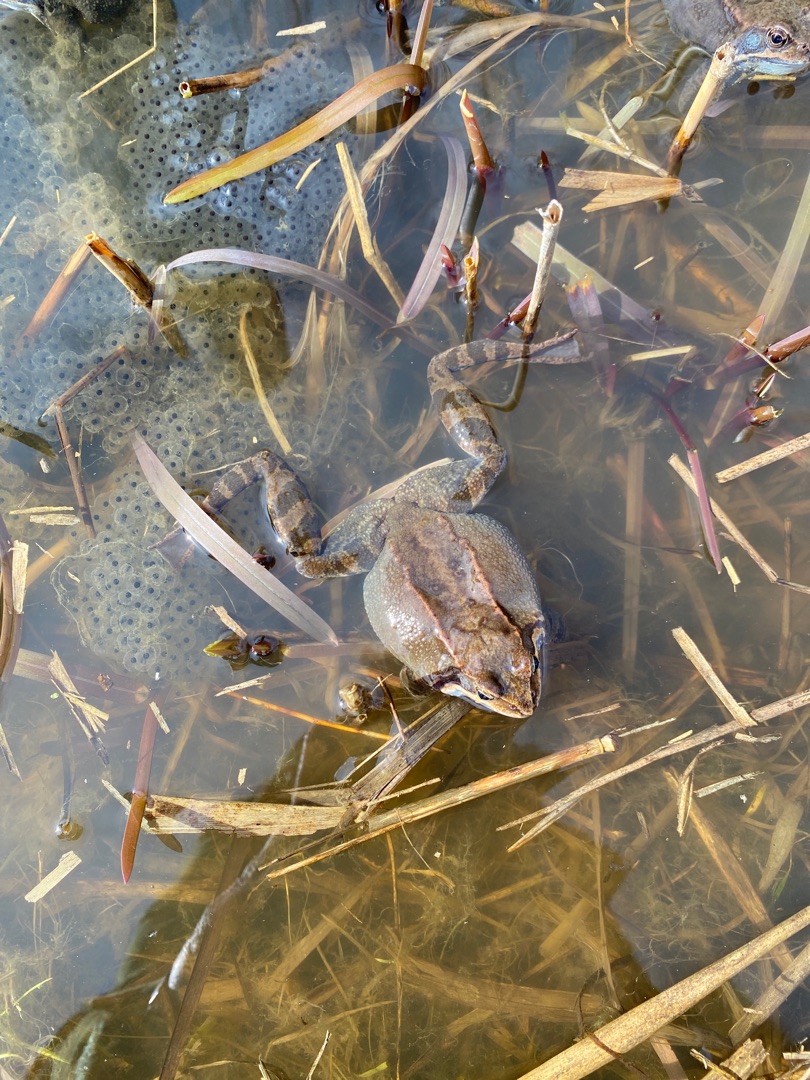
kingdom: Animalia
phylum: Chordata
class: Amphibia
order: Anura
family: Ranidae
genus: Rana
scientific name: Rana temporaria
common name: Butsnudet frø
